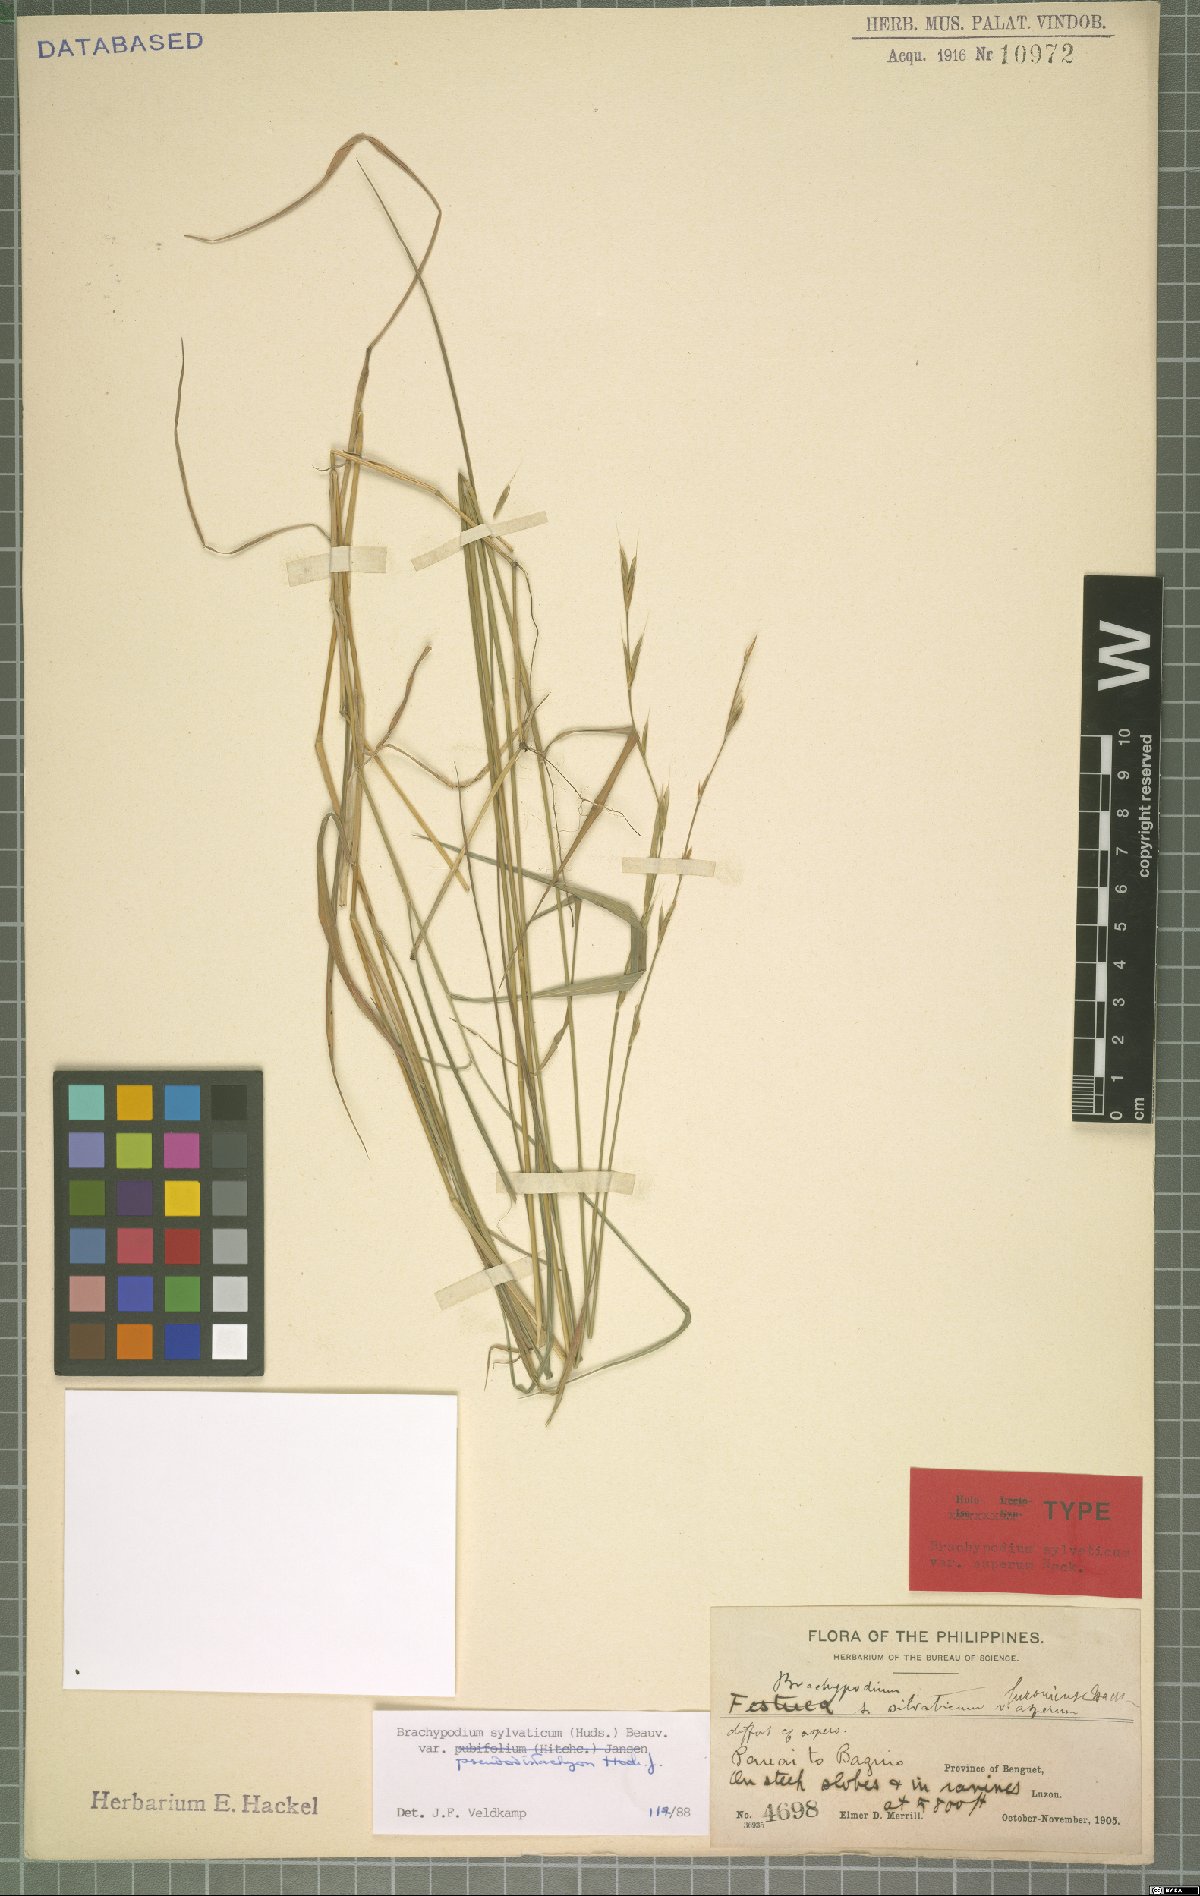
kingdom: Plantae
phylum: Tracheophyta
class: Liliopsida
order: Poales
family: Poaceae
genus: Brachypodium
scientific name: Brachypodium sylvaticum
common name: False-brome
